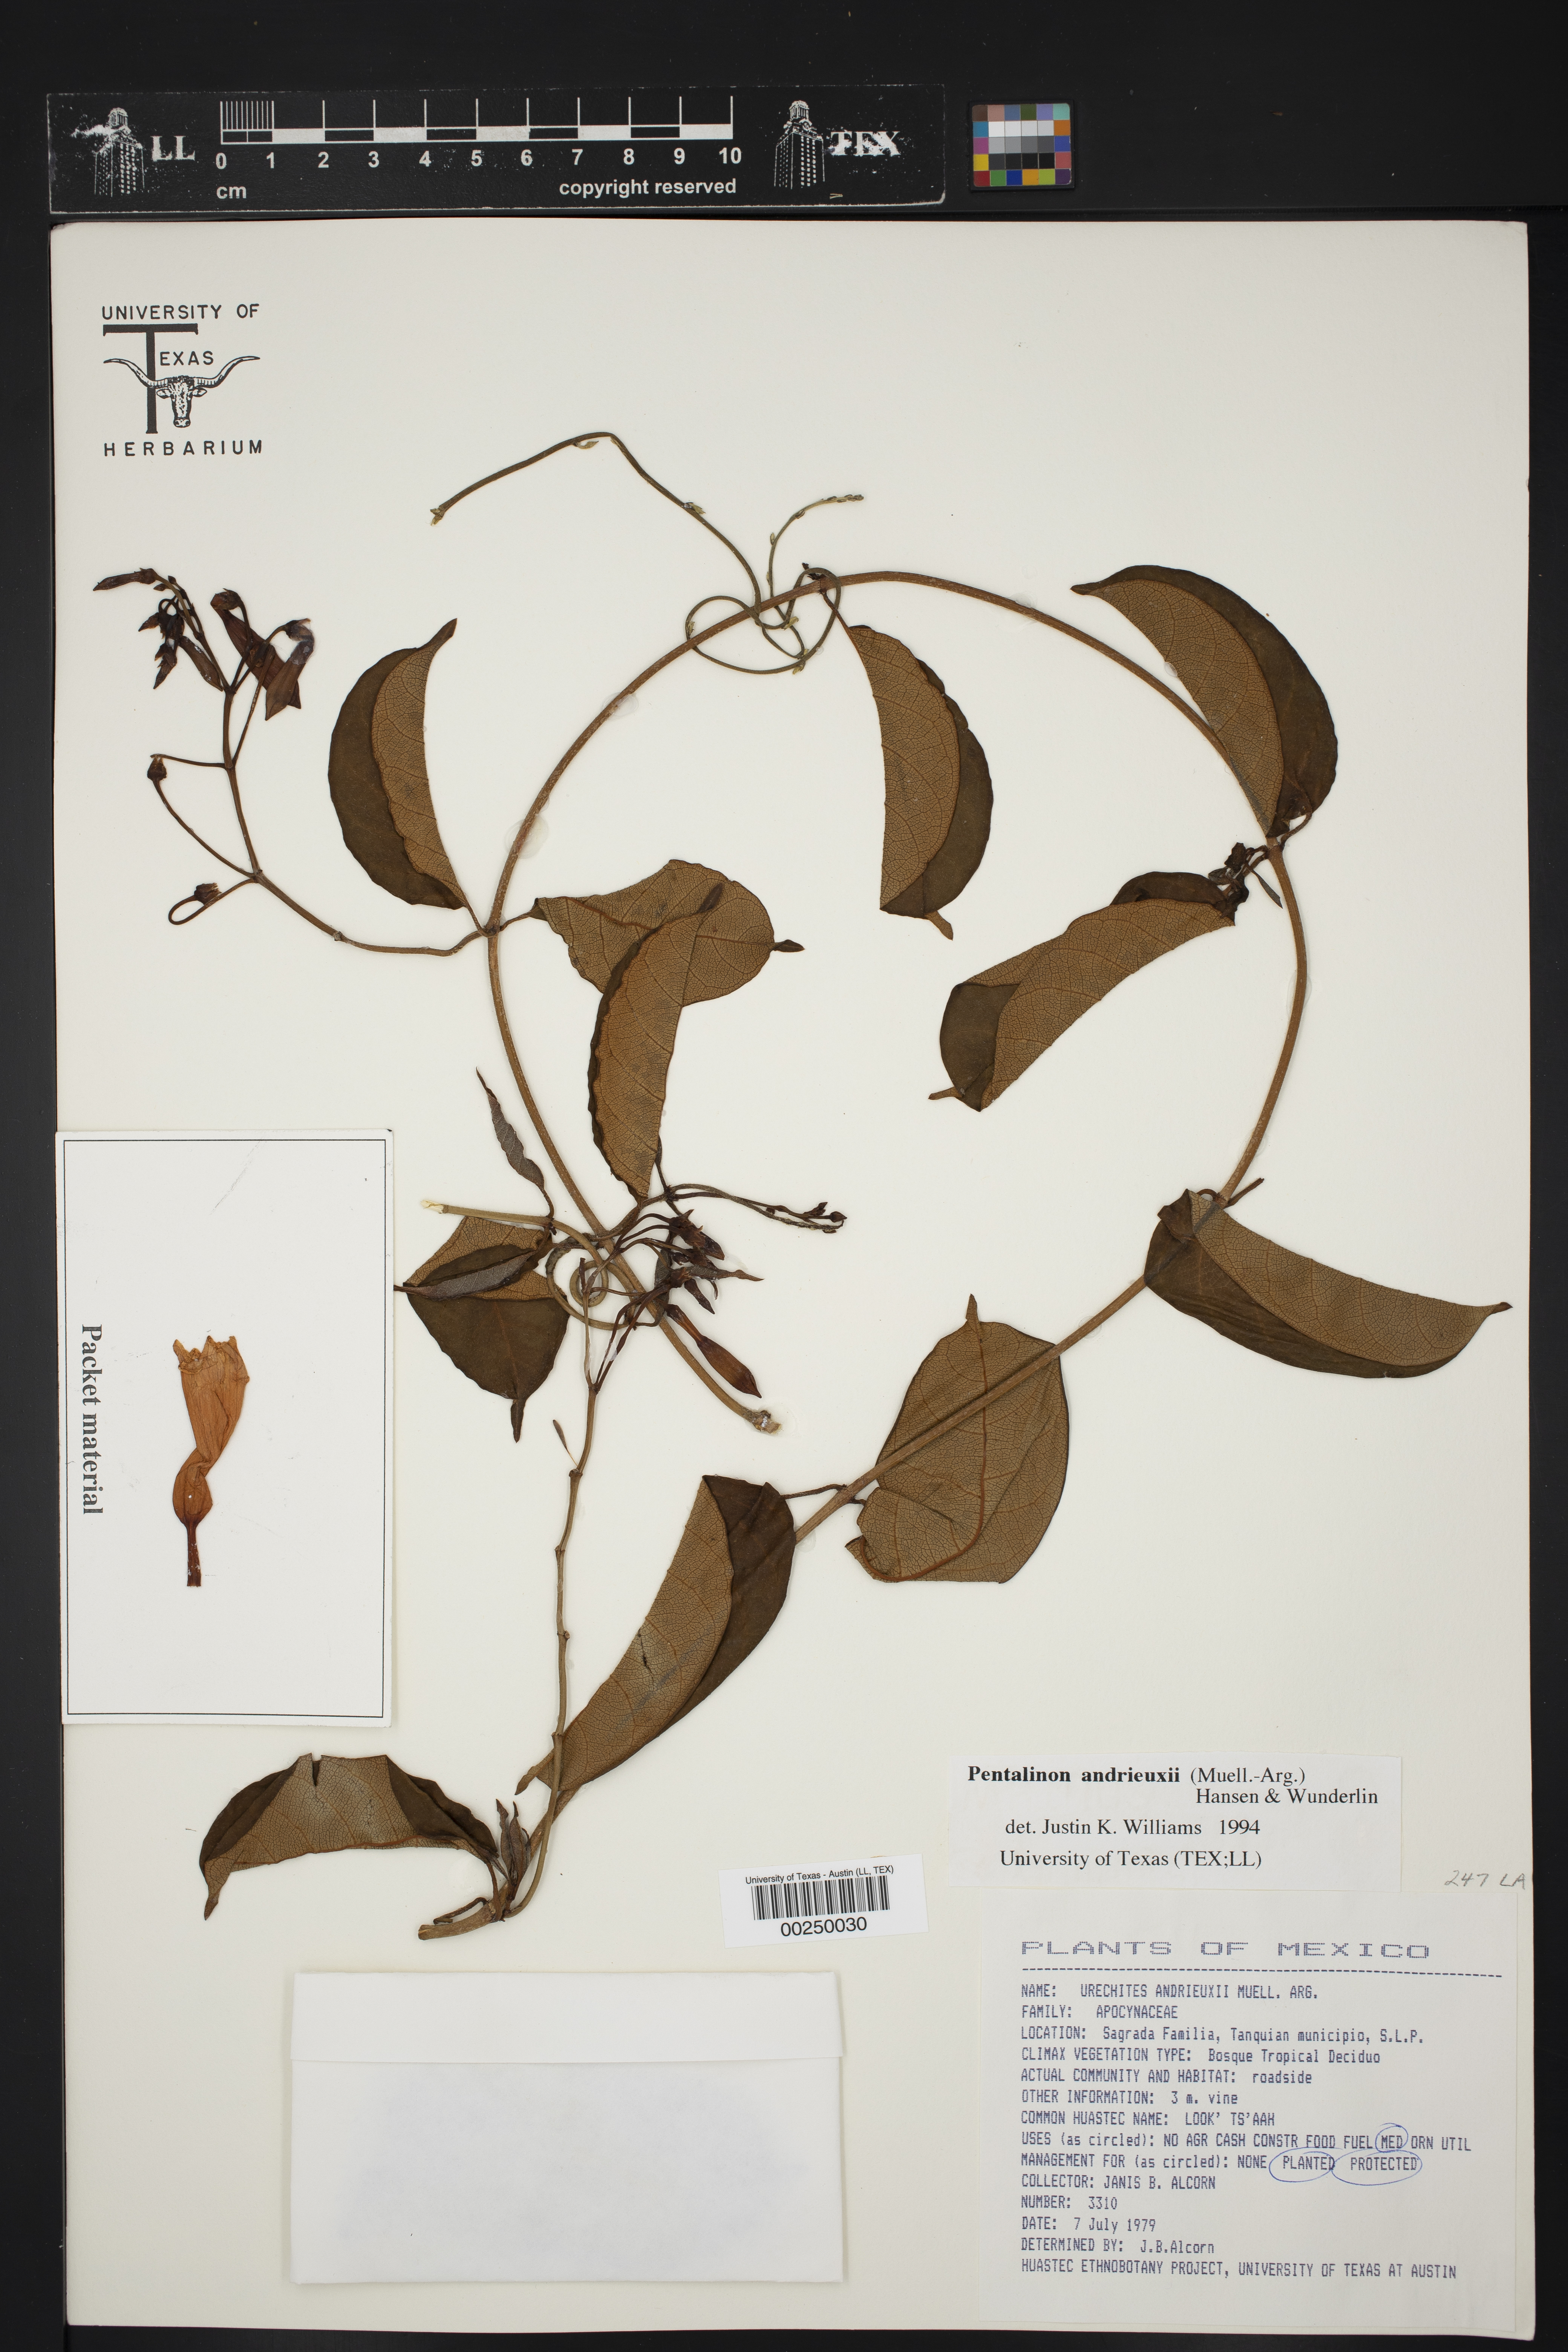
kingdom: Plantae
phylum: Tracheophyta
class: Magnoliopsida
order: Gentianales
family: Apocynaceae
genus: Pentalinon
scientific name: Pentalinon andrieuxii
